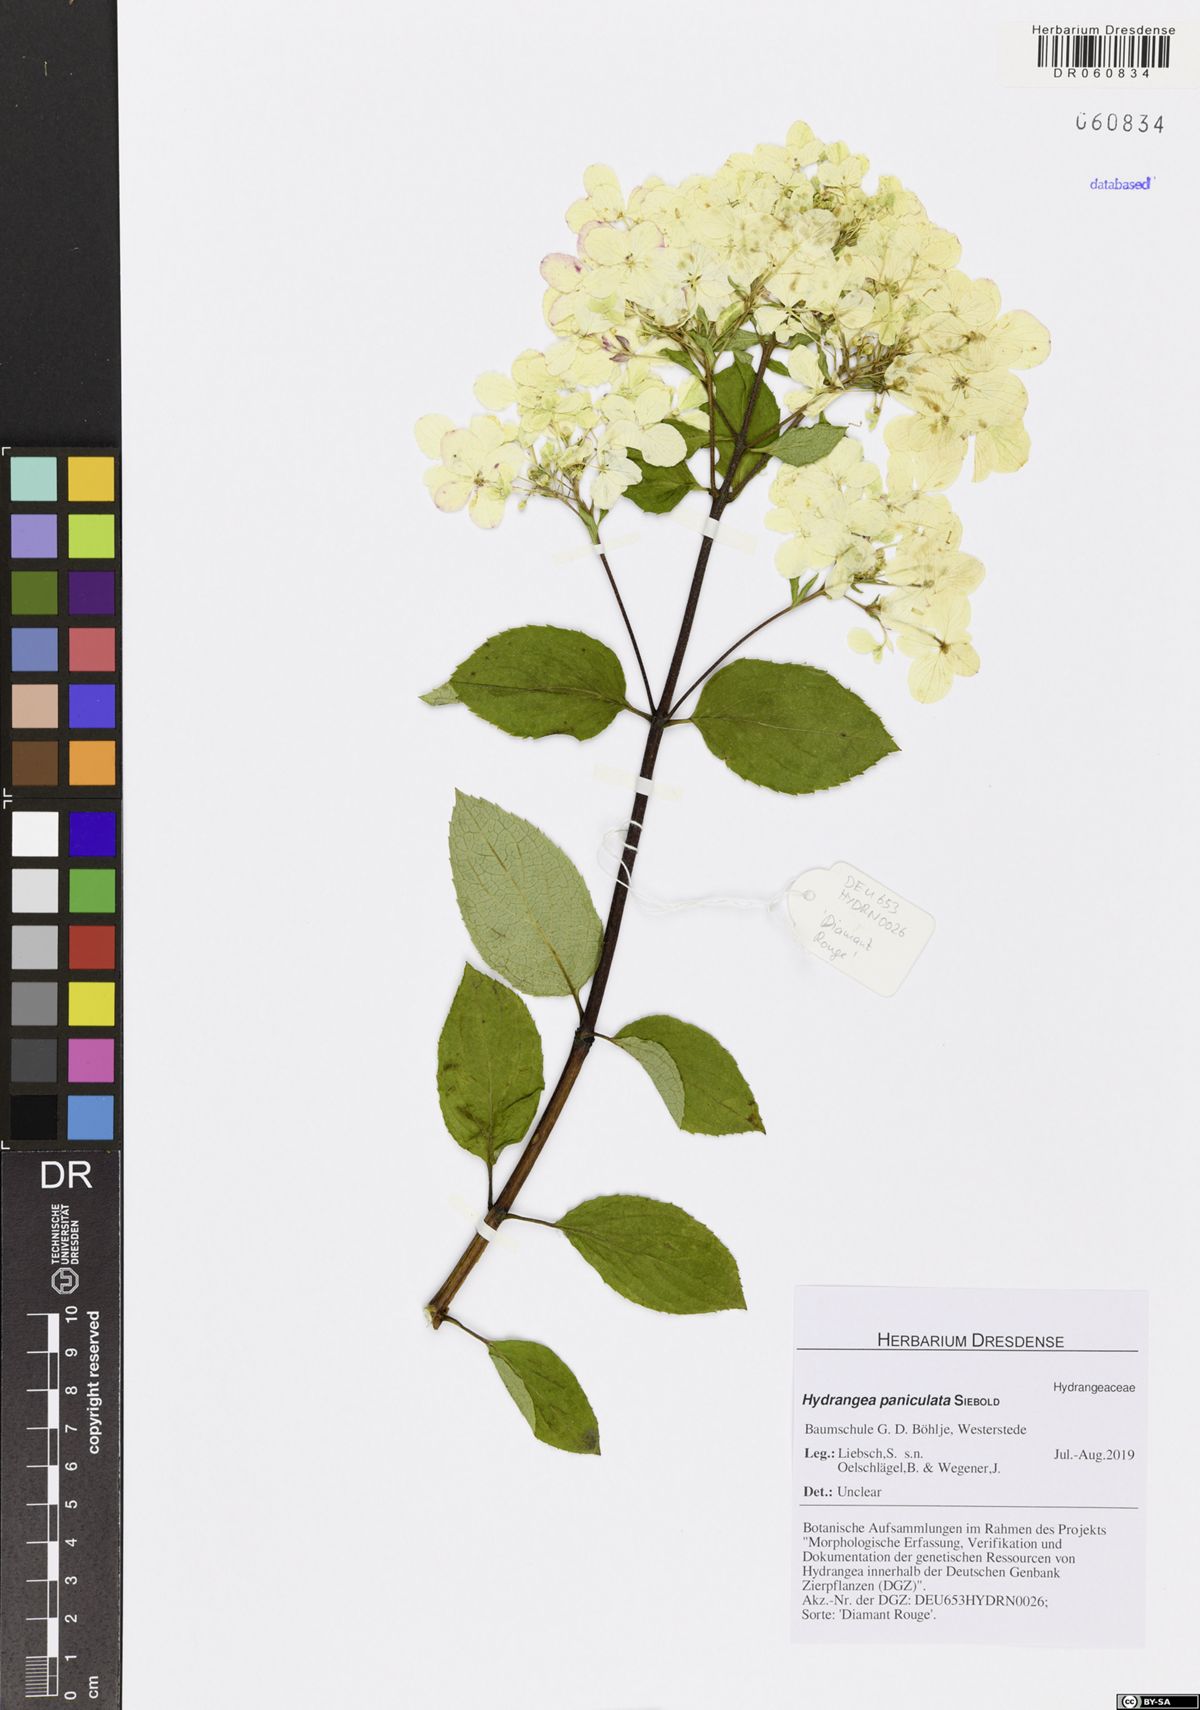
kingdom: Plantae
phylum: Tracheophyta
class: Magnoliopsida
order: Cornales
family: Hydrangeaceae
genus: Hydrangea
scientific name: Hydrangea paniculata
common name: Panicled hydrangea
